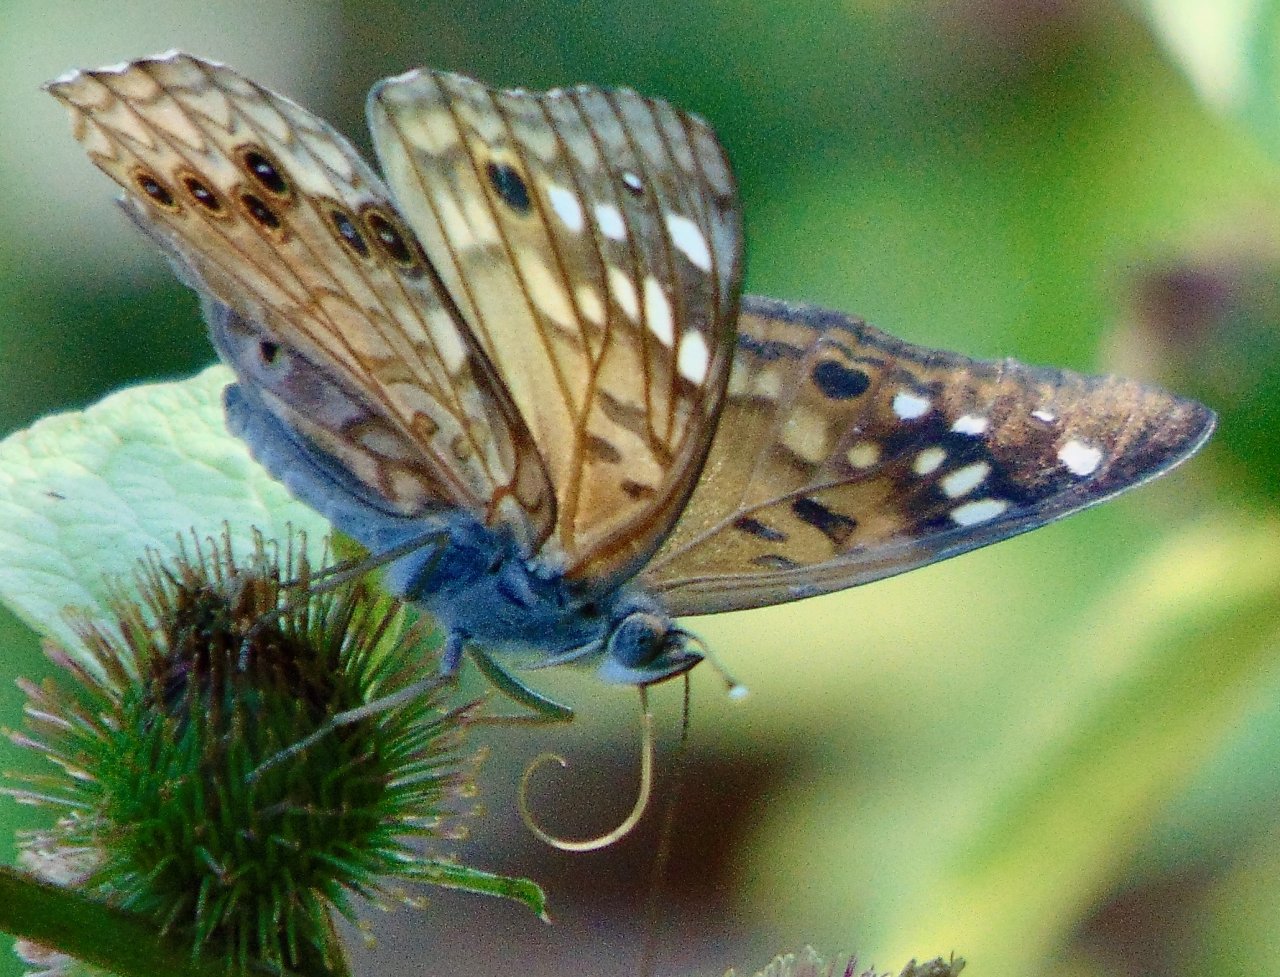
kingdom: Animalia
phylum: Arthropoda
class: Insecta
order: Lepidoptera
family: Nymphalidae
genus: Asterocampa
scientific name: Asterocampa celtis
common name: Hackberry Emperor
